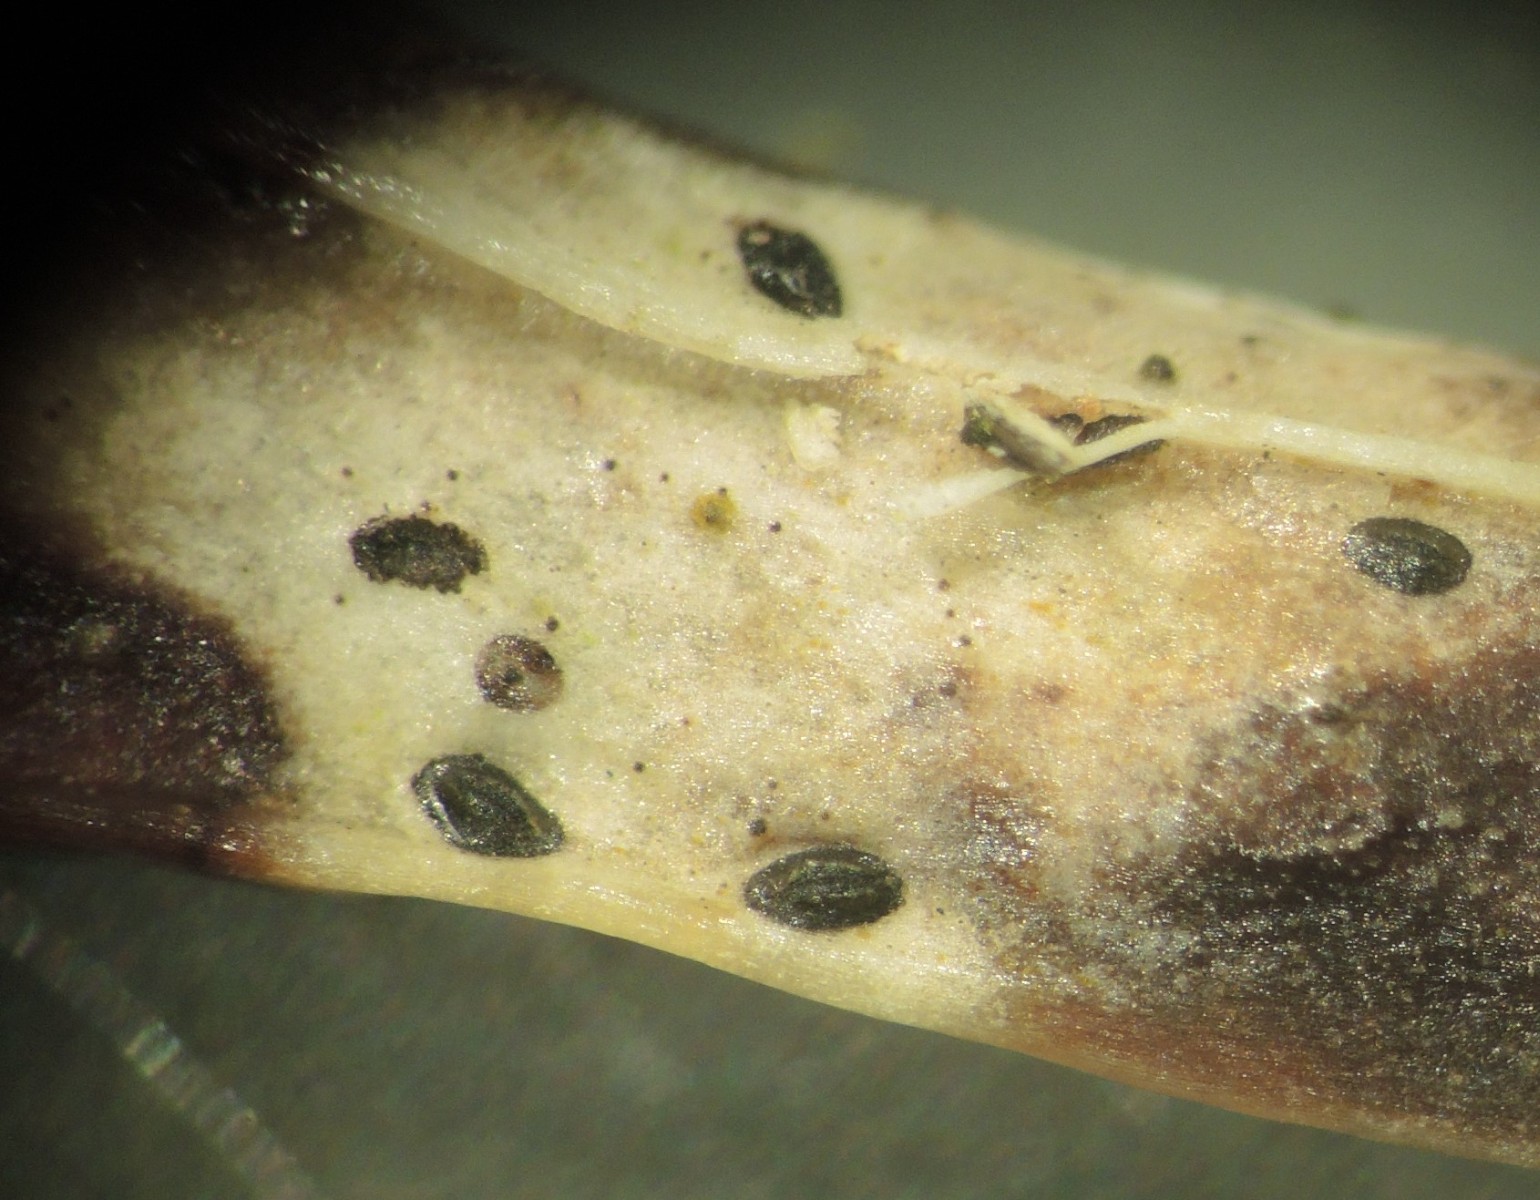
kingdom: Fungi
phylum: Ascomycota
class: Leotiomycetes
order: Rhytismatales
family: Rhytismataceae
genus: Lophodermium
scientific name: Lophodermium maculare
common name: bølle-fureplet
